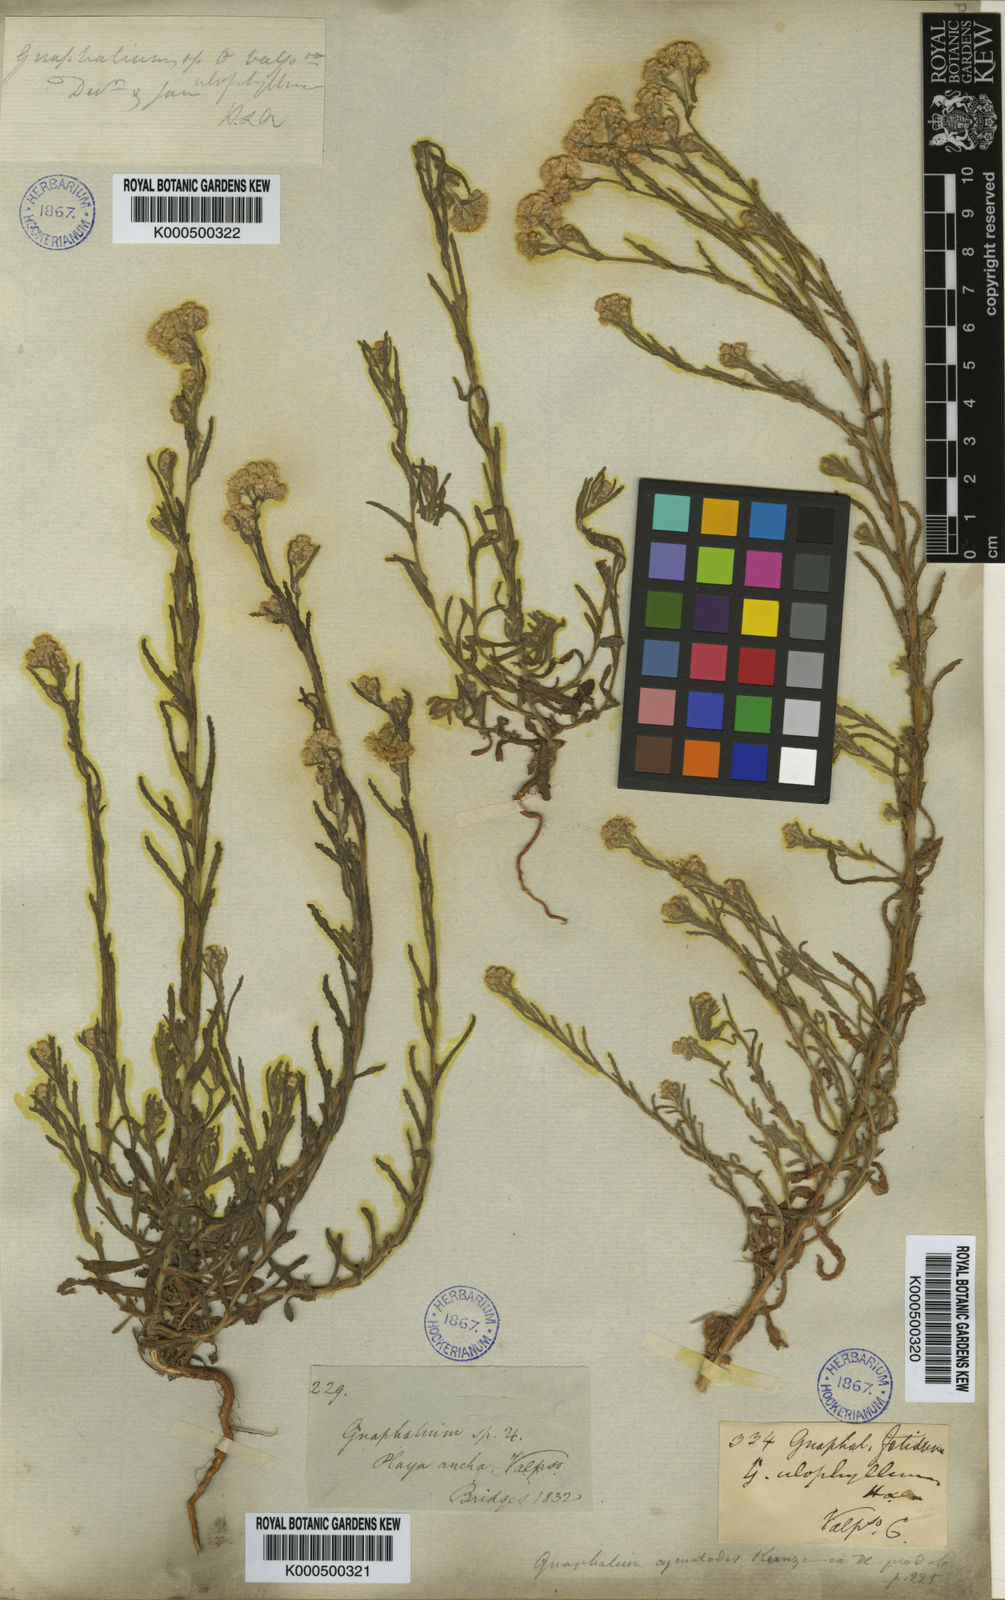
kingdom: Plantae
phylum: Tracheophyta
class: Magnoliopsida
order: Asterales
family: Asteraceae
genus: Pseudognaphalium
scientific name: Pseudognaphalium cymatoides
